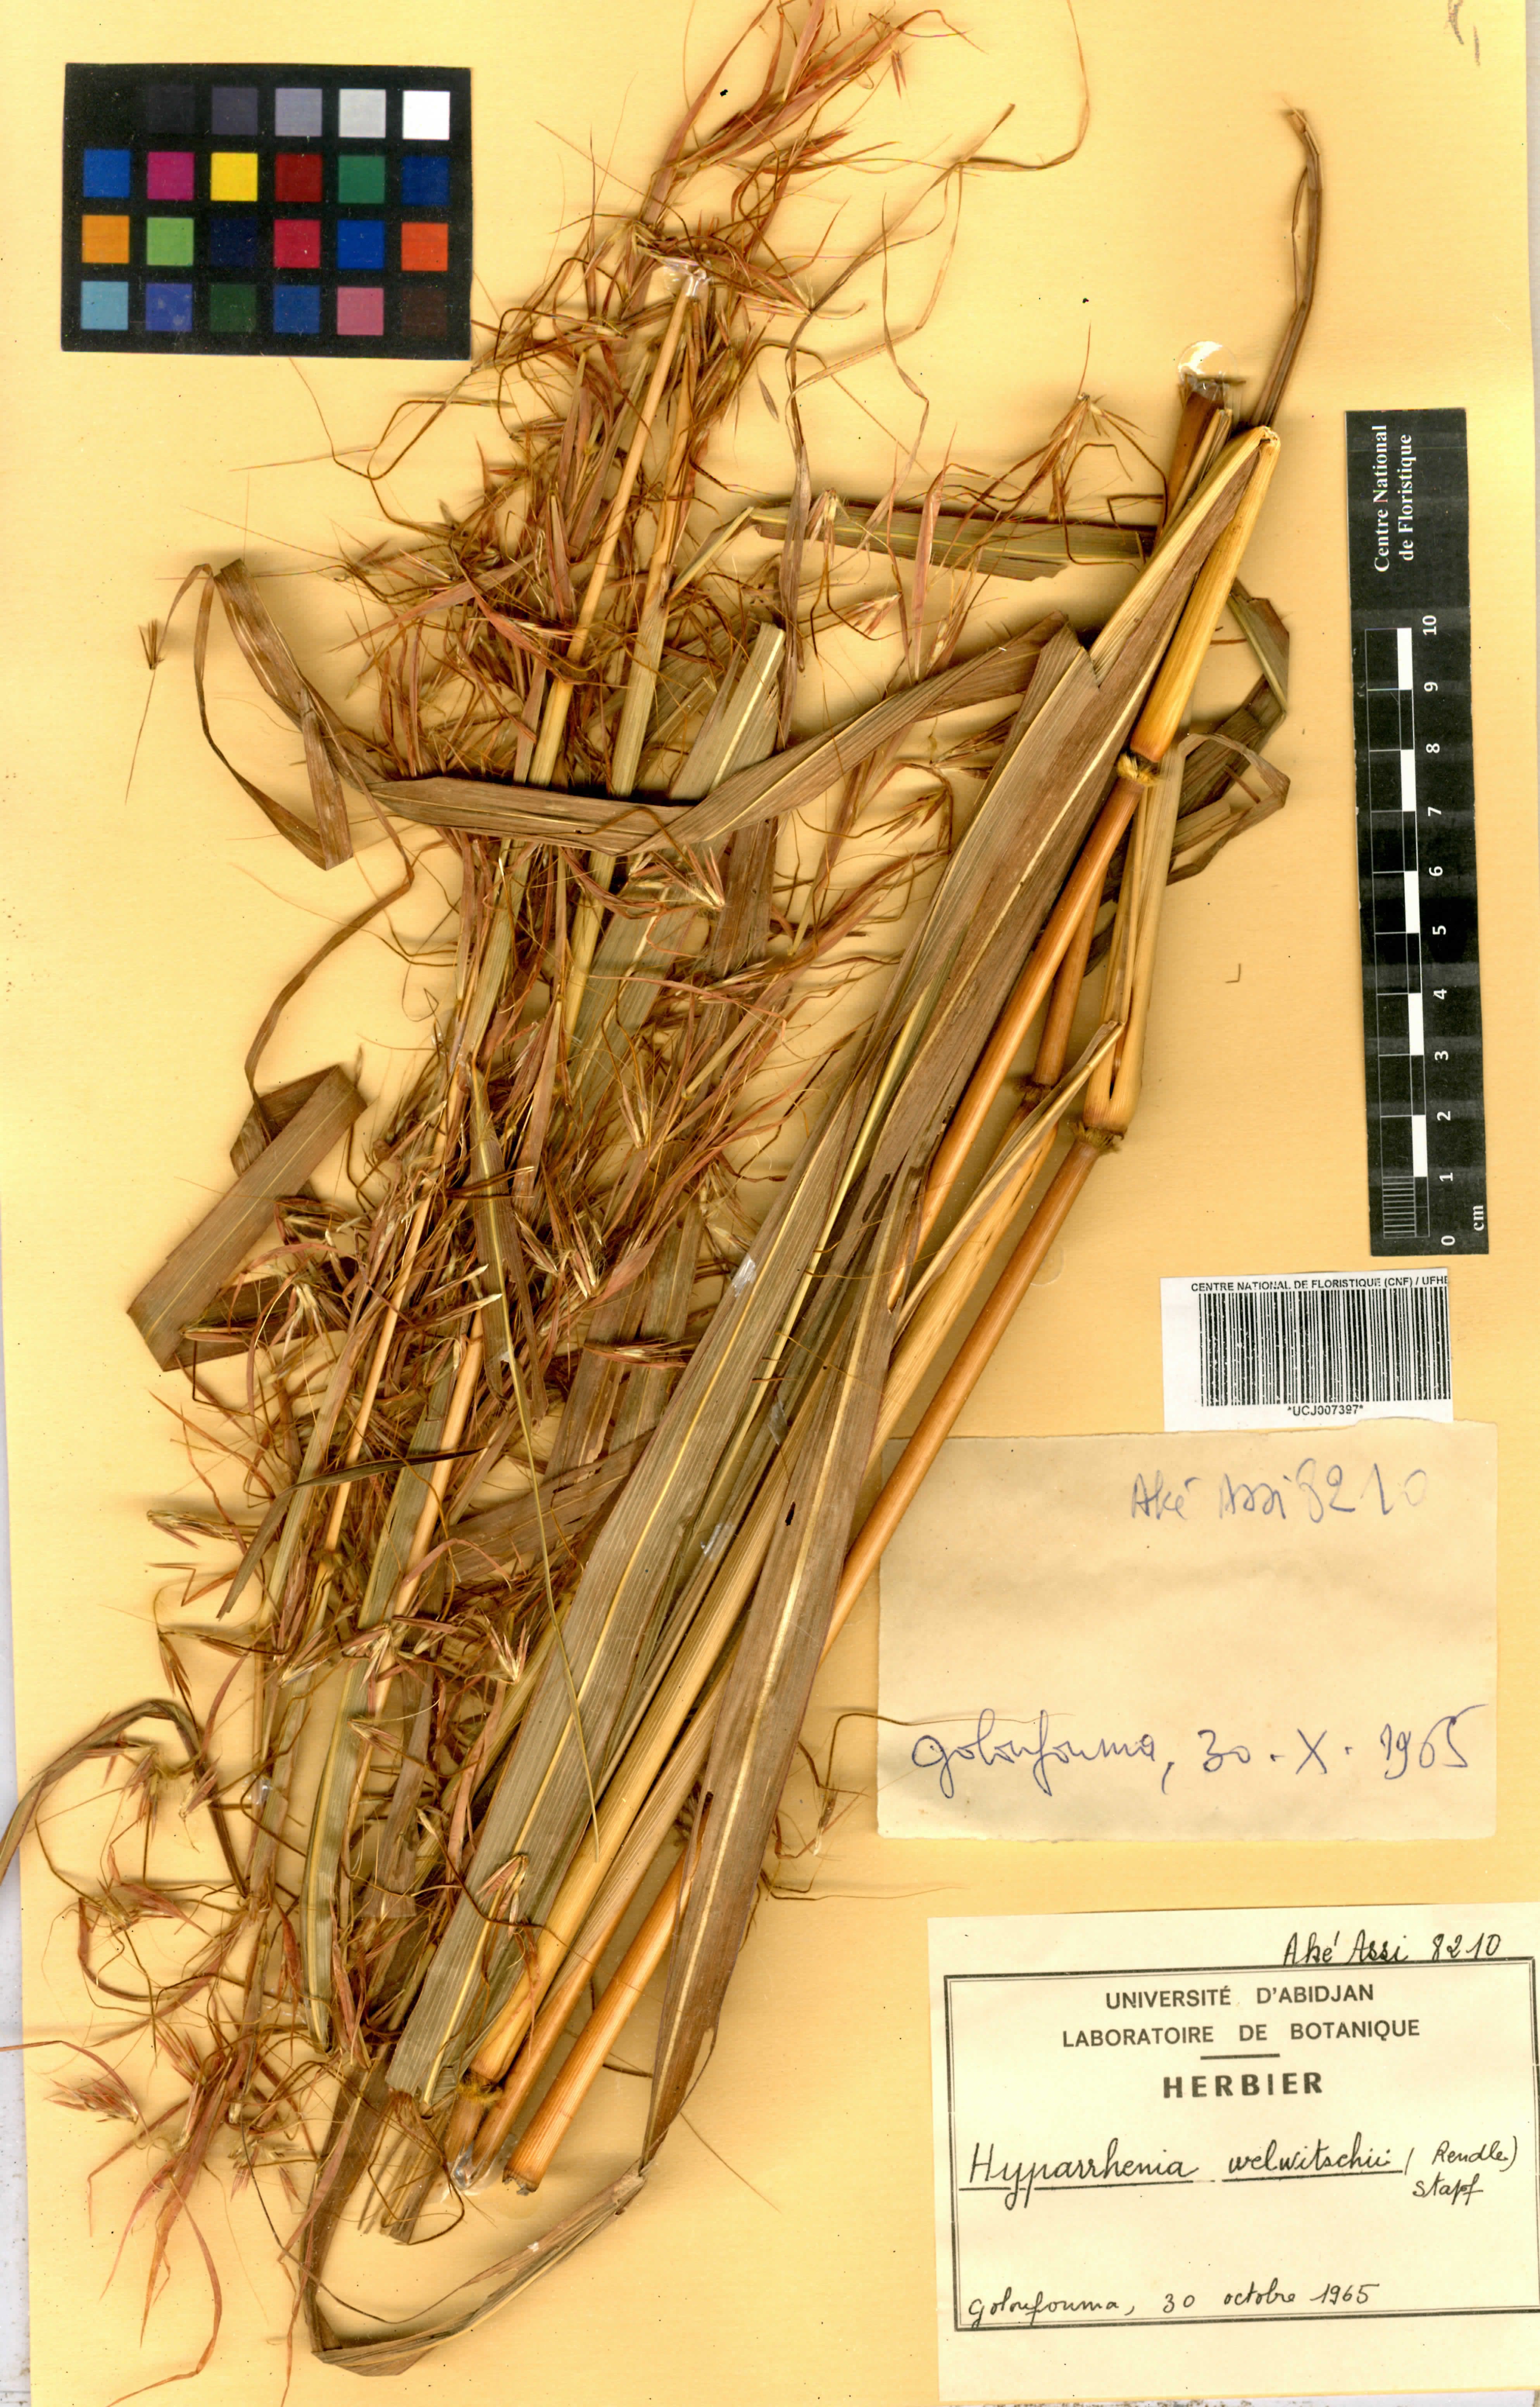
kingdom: Plantae
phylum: Tracheophyta
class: Liliopsida
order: Poales
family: Poaceae
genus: Hyparrhenia
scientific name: Hyparrhenia welwitschii
